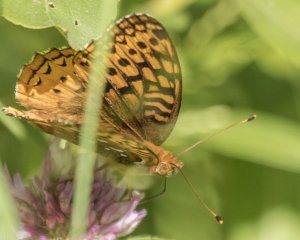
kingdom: Animalia
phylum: Arthropoda
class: Insecta
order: Lepidoptera
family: Nymphalidae
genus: Speyeria
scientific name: Speyeria cybele
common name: Great Spangled Fritillary
